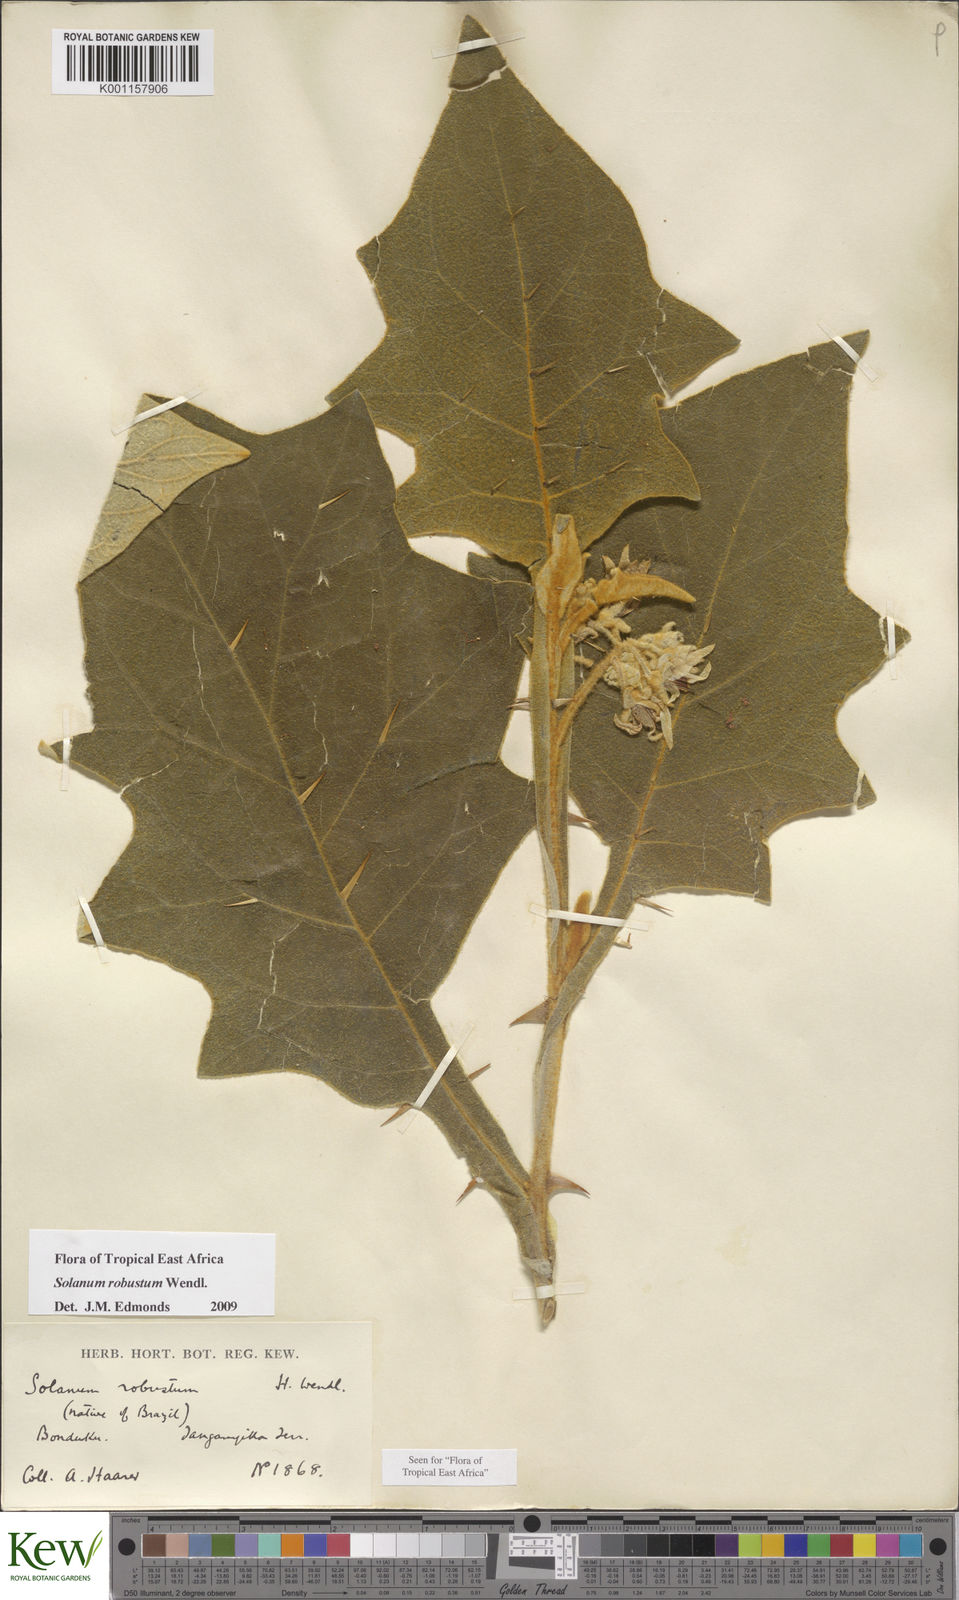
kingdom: Plantae
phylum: Tracheophyta
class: Magnoliopsida
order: Solanales
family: Solanaceae
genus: Solanum
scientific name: Solanum robustum
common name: Shrubby nightshade
